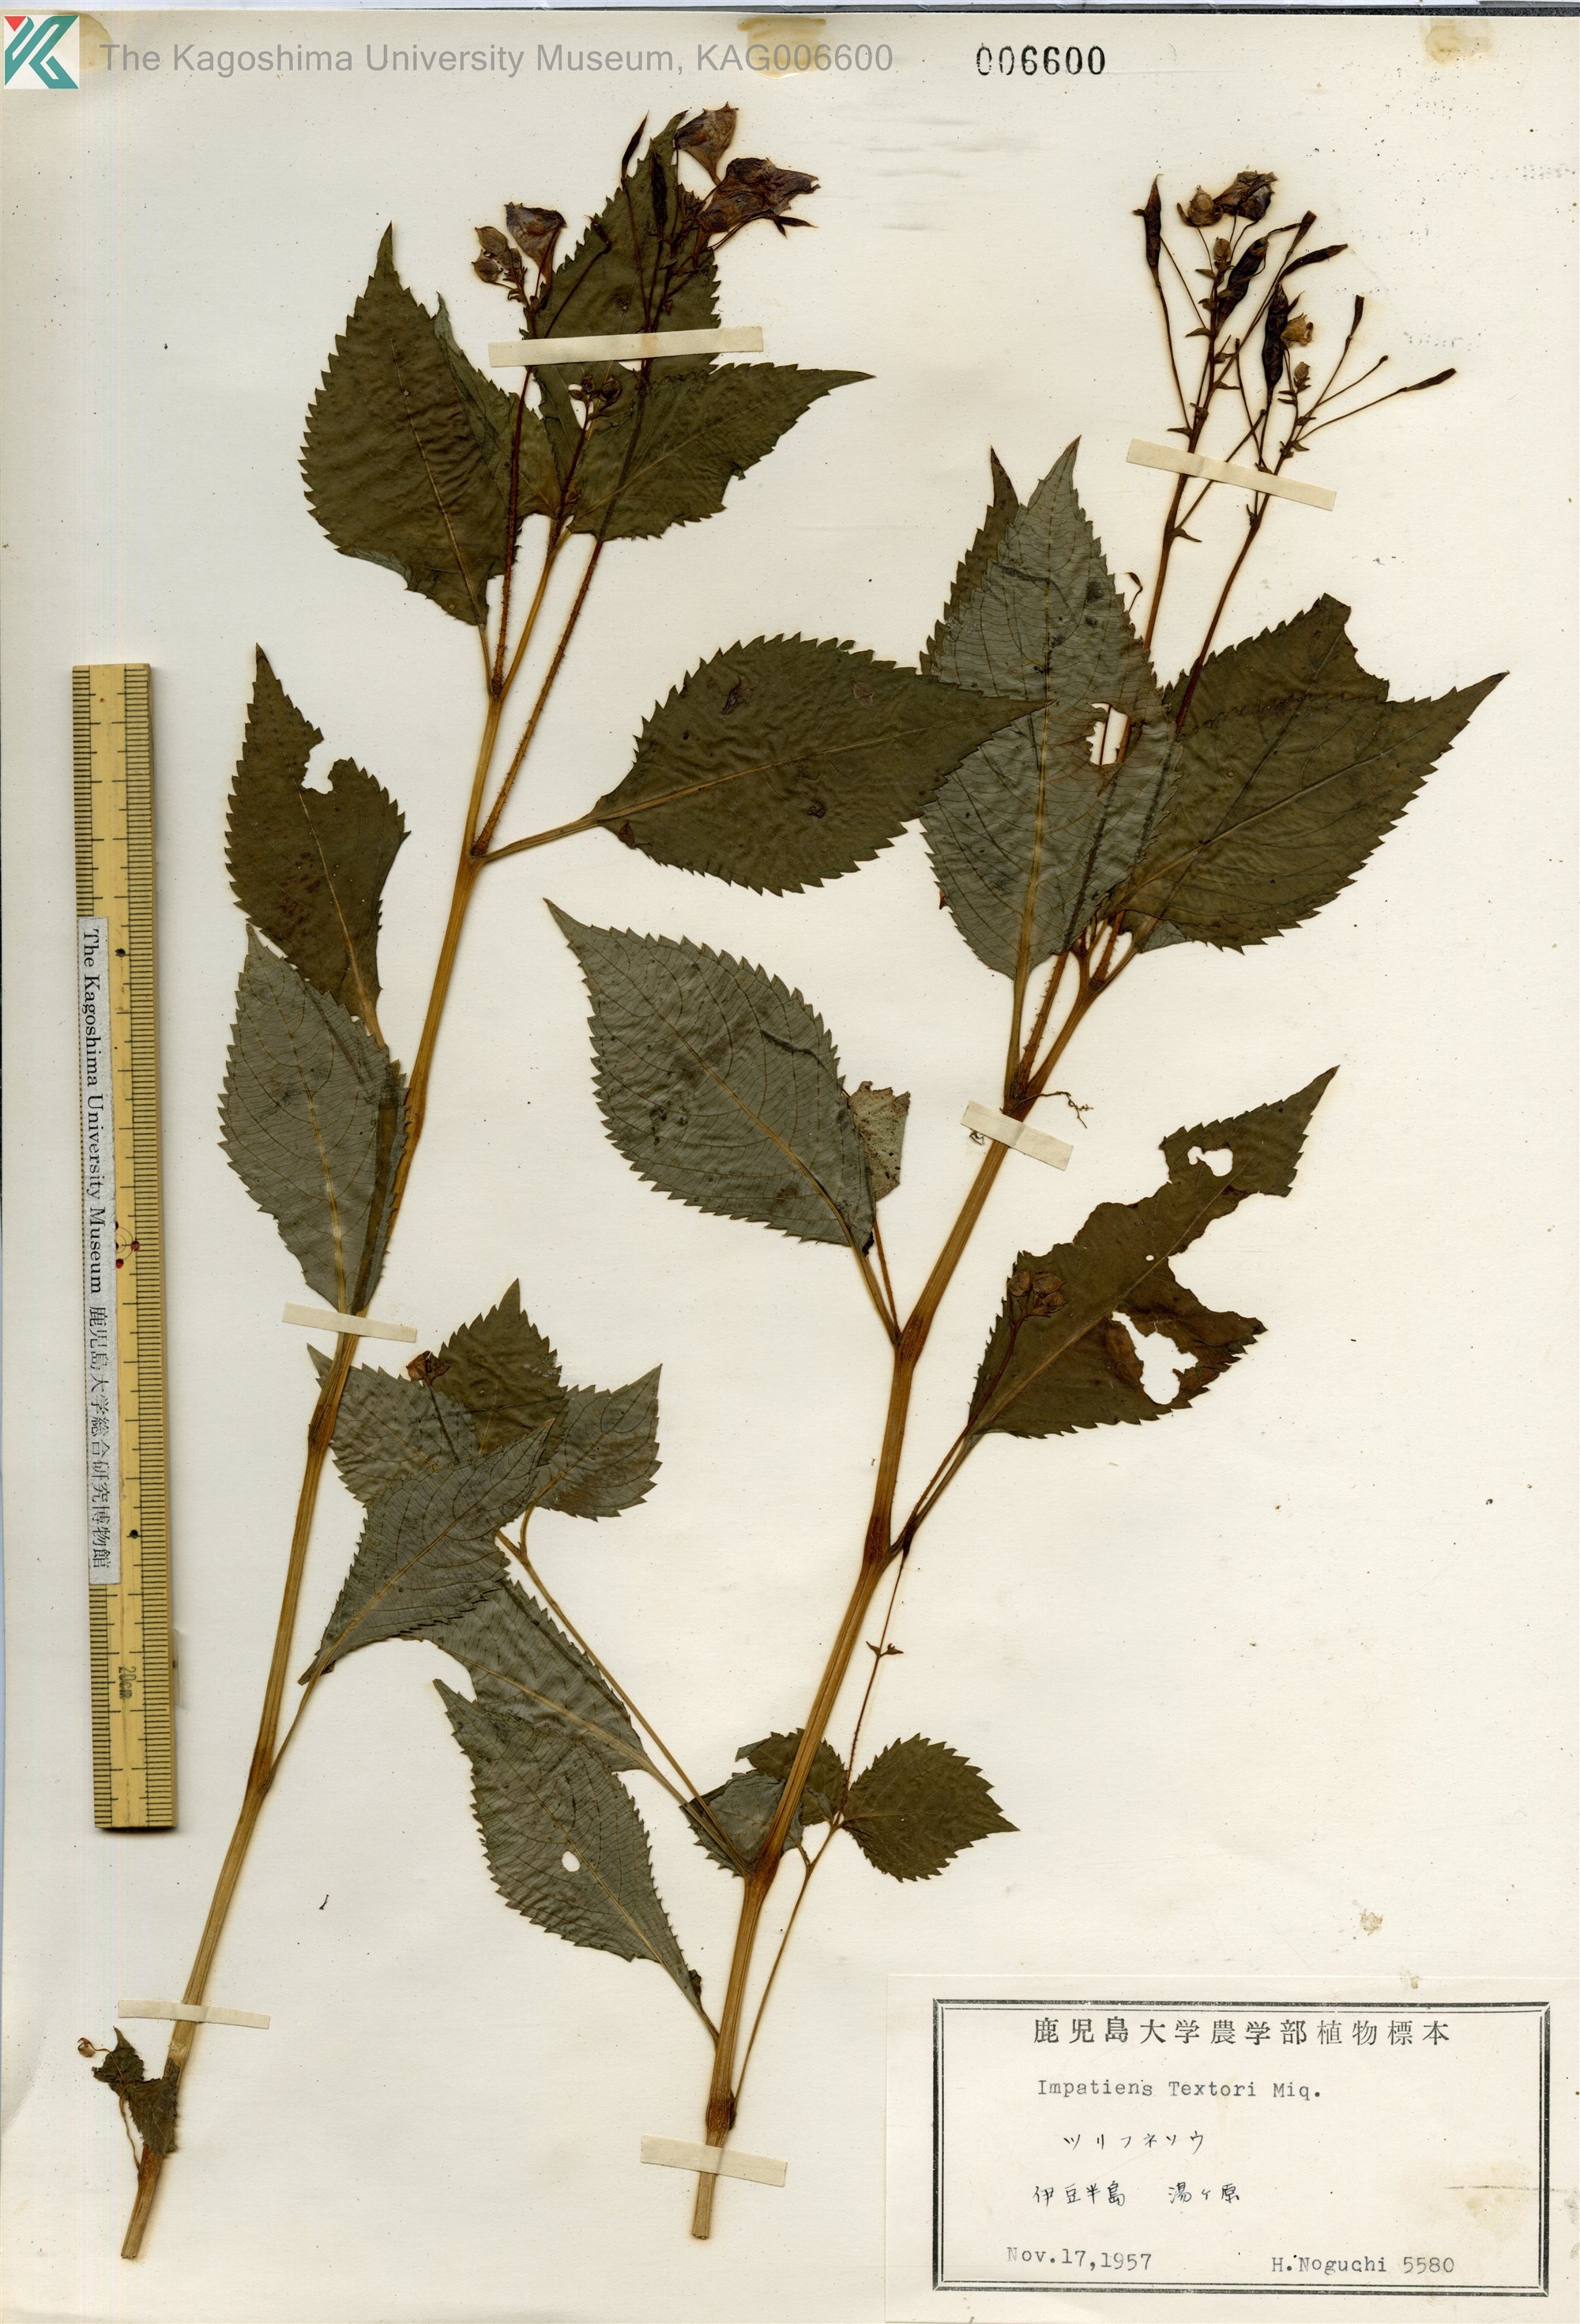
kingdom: Plantae
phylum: Tracheophyta
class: Magnoliopsida
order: Ericales
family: Balsaminaceae
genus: Impatiens
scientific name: Impatiens textorii
